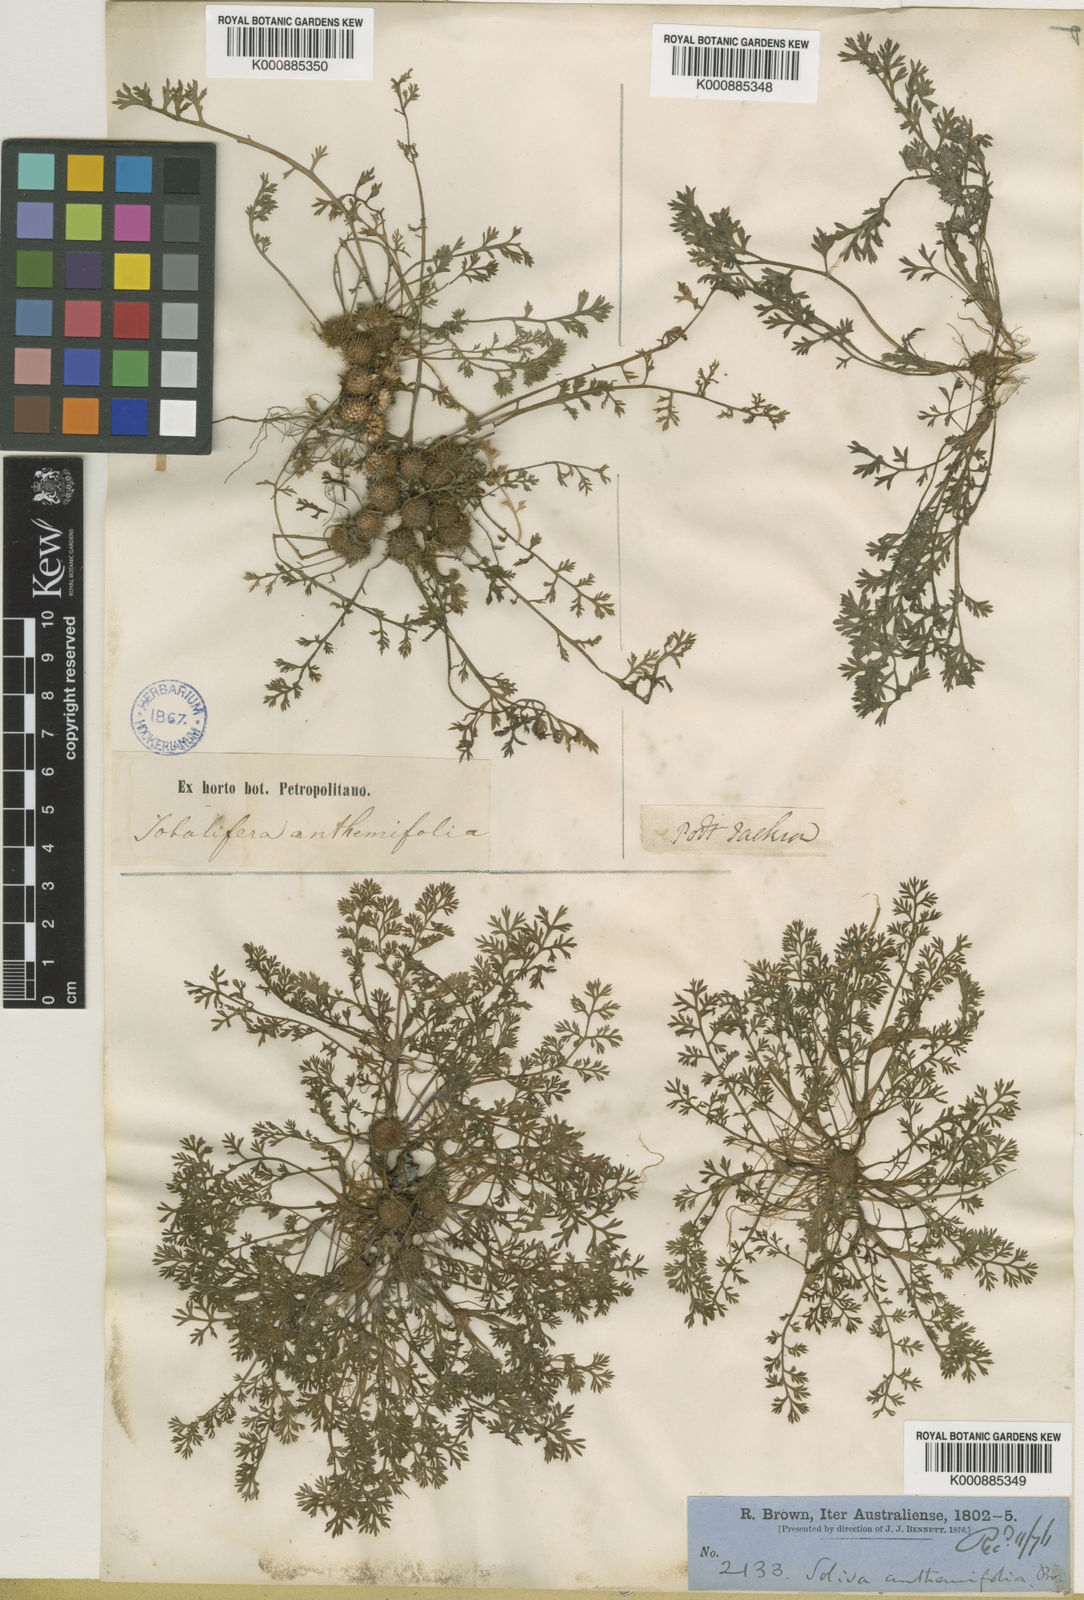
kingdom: Plantae
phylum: Tracheophyta
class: Magnoliopsida
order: Asterales
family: Asteraceae
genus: Soliva
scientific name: Soliva
